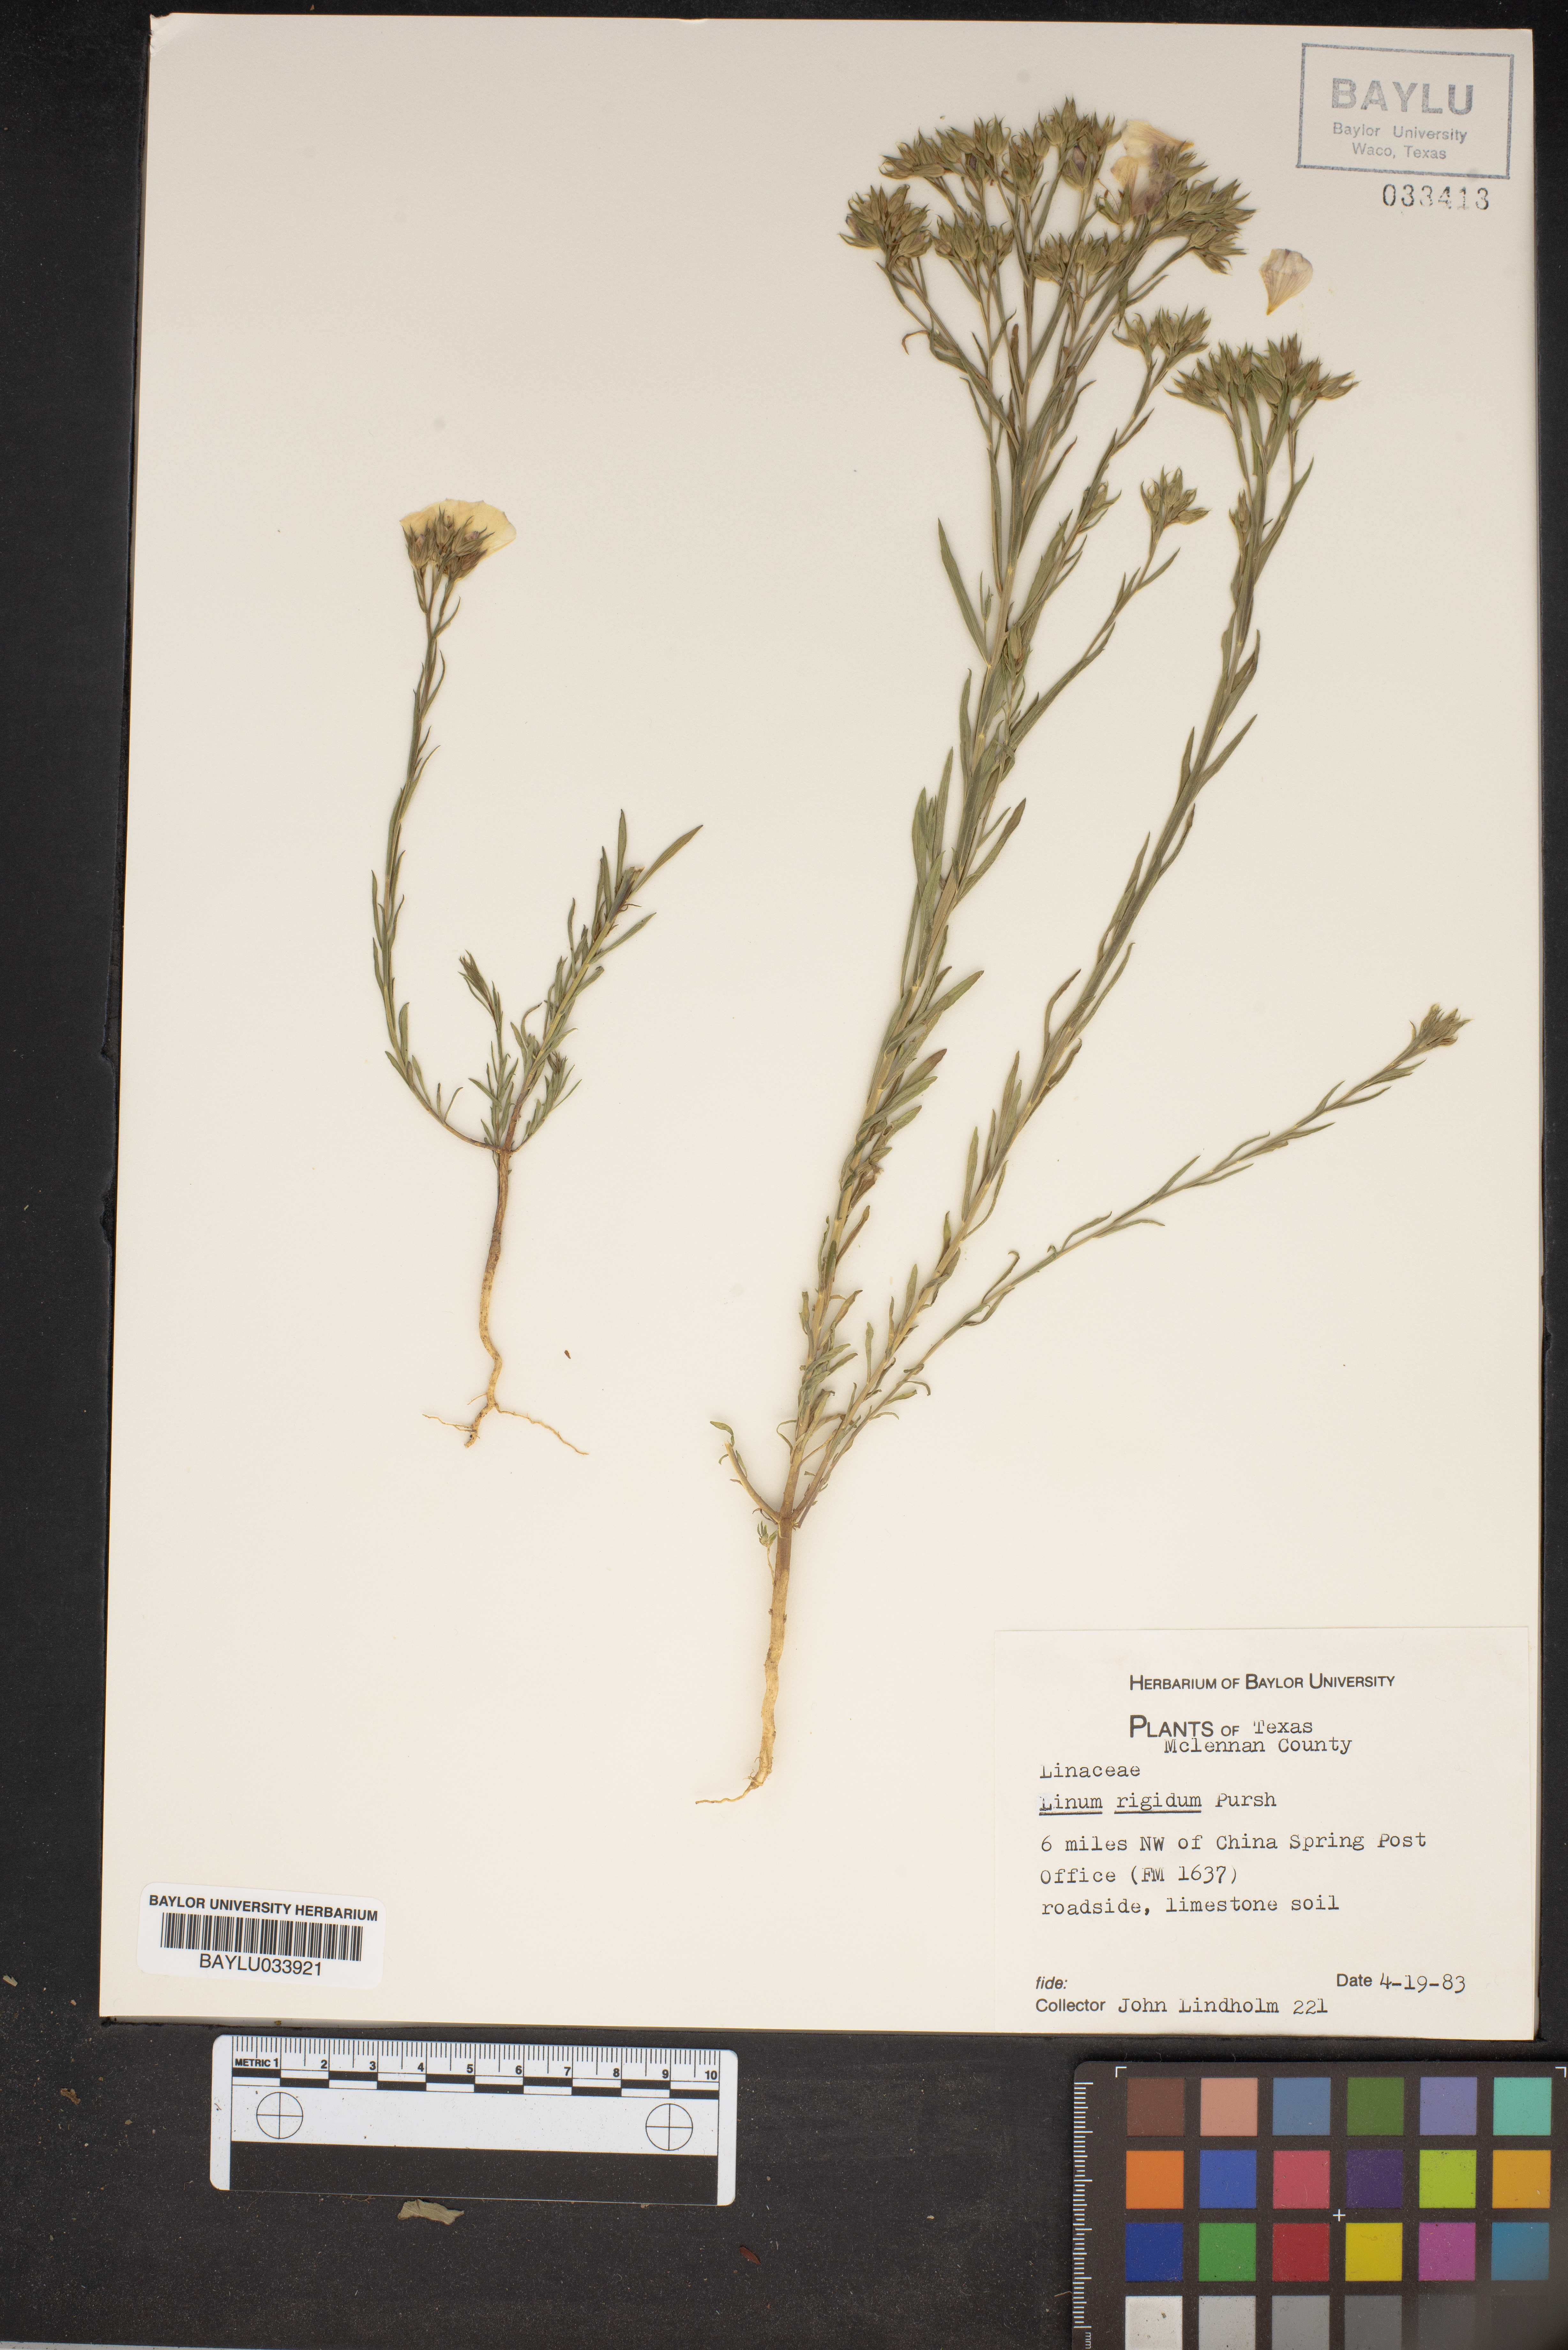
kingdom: Plantae
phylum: Tracheophyta
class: Magnoliopsida
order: Malpighiales
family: Linaceae
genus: Linum
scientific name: Linum rigidum
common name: Stiff-stem flax
